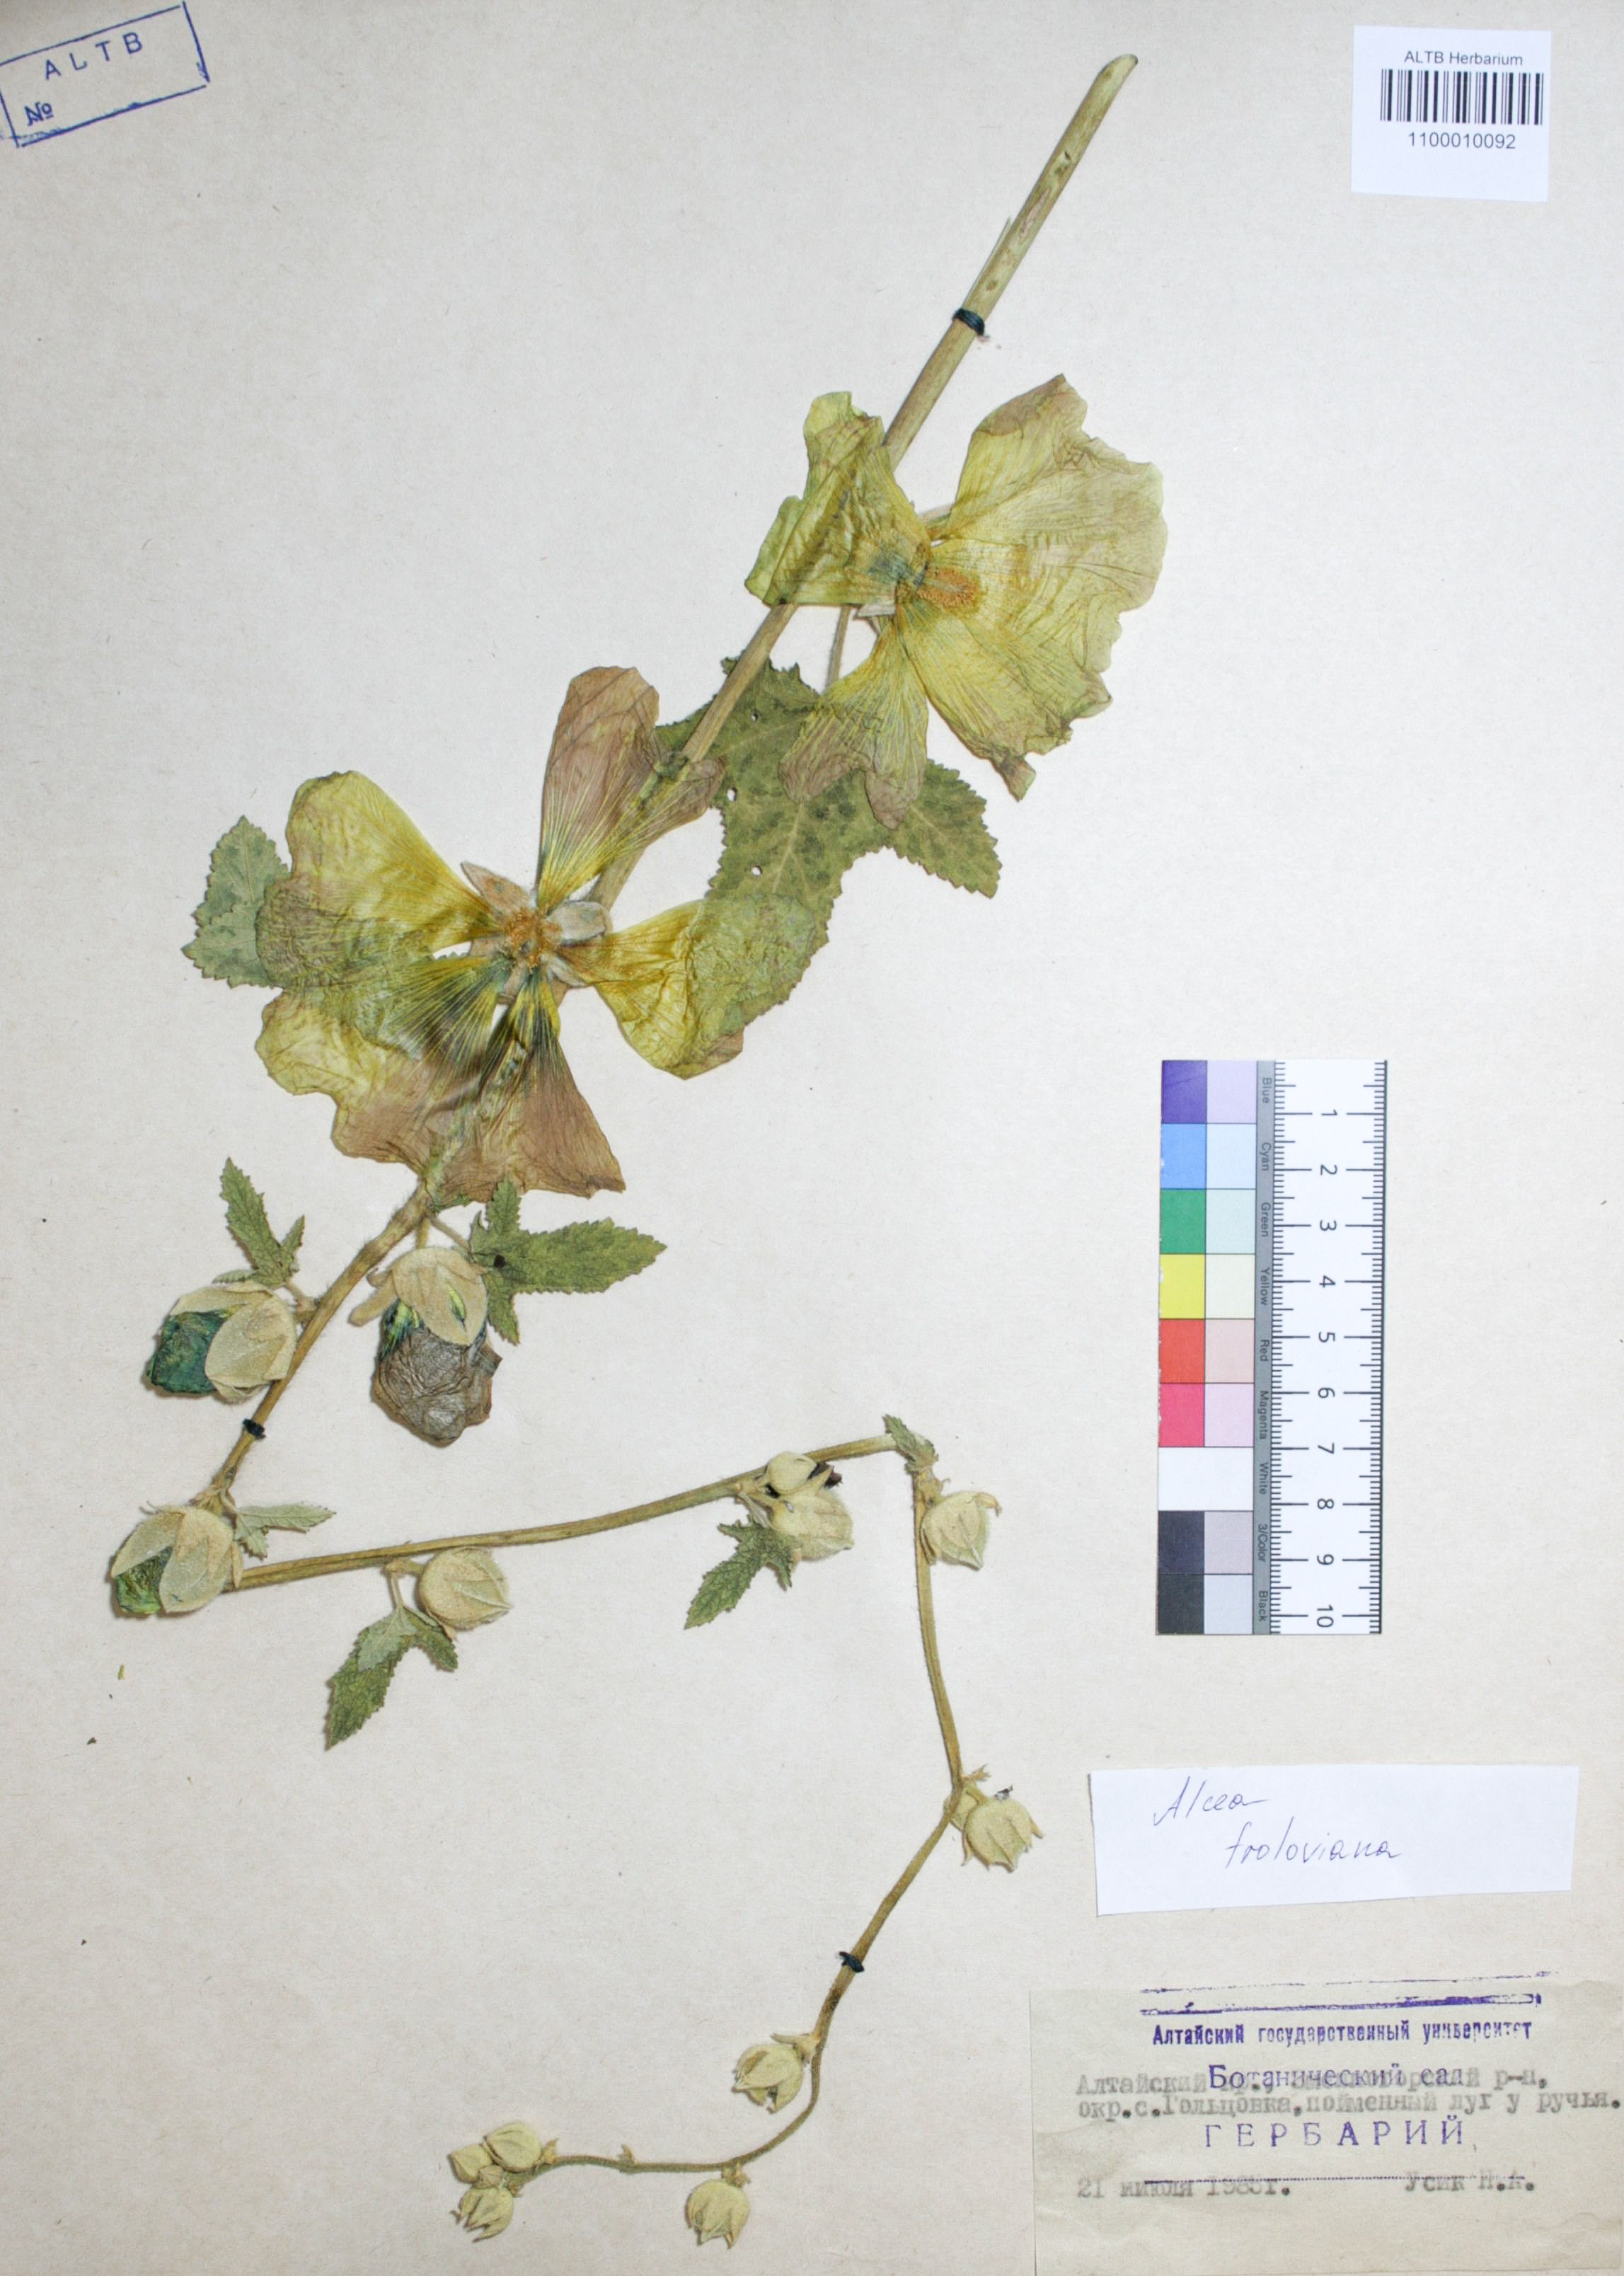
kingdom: Plantae
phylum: Tracheophyta
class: Magnoliopsida
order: Malvales
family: Malvaceae
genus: Alcea
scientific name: Alcea froloviana
